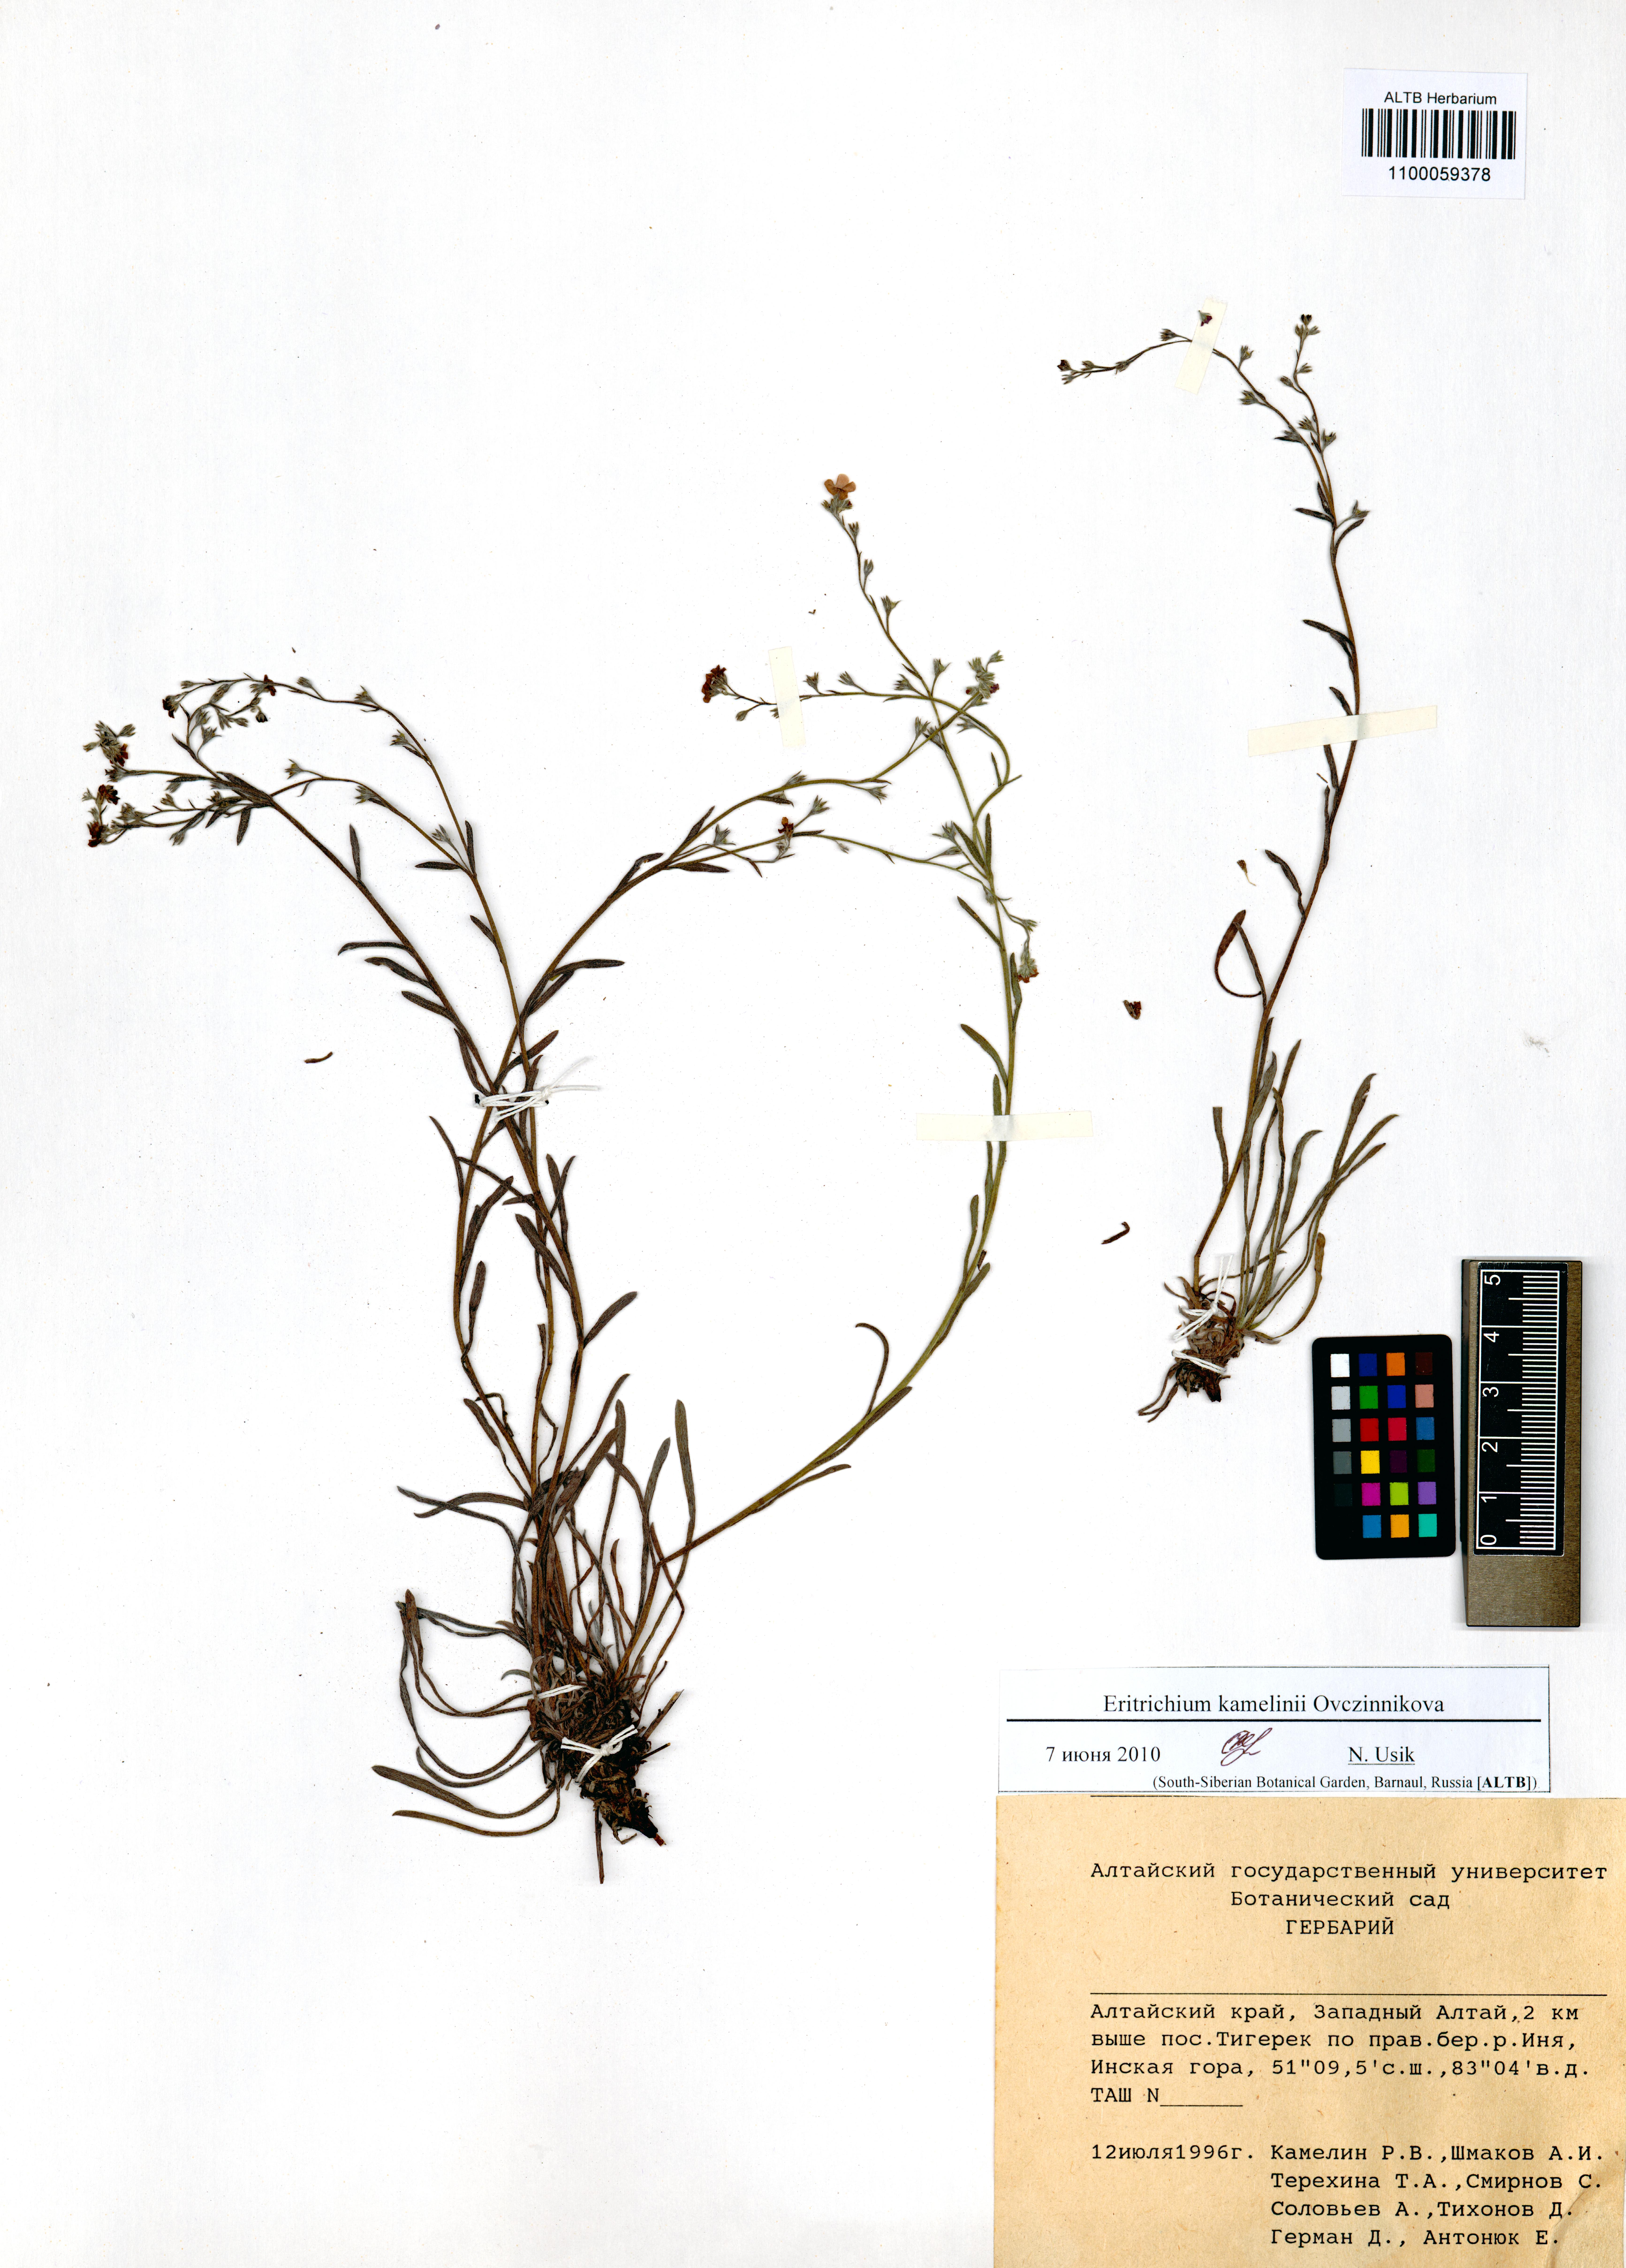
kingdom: Plantae
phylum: Tracheophyta
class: Magnoliopsida
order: Boraginales
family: Boraginaceae
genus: Eritrichium
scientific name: Eritrichium kamelinii
